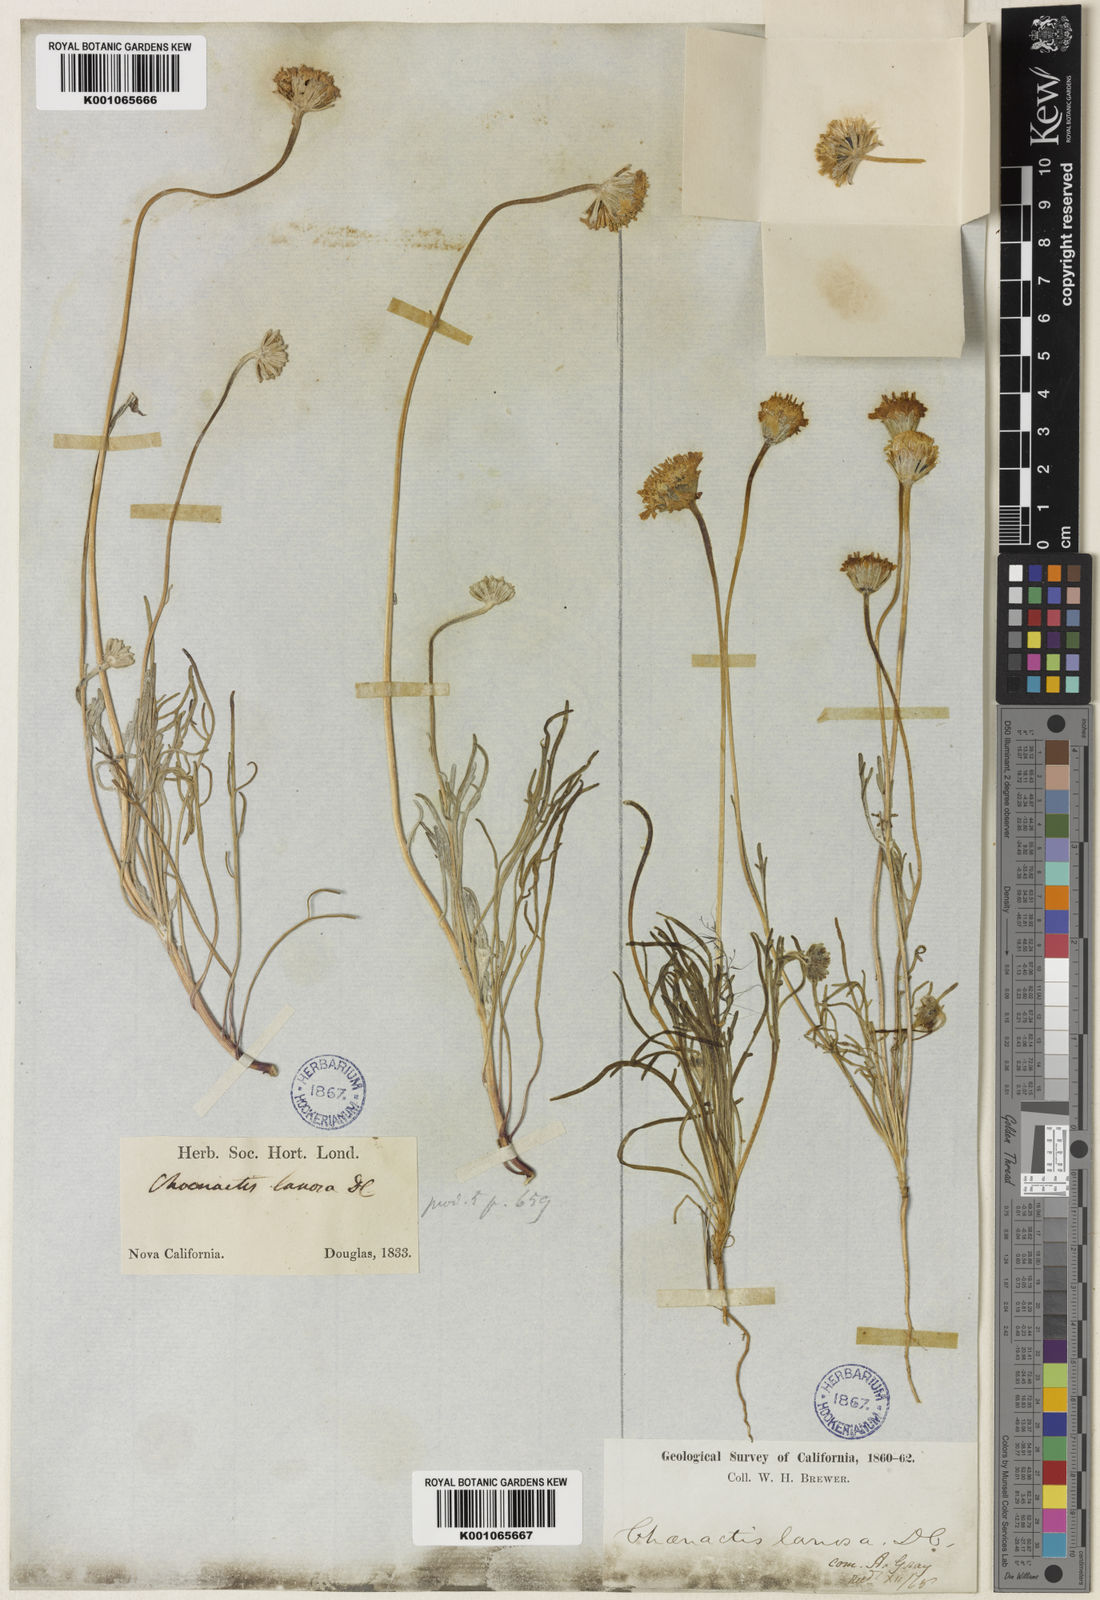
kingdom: Plantae
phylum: Tracheophyta
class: Magnoliopsida
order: Asterales
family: Asteraceae
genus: Chaenactis
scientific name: Chaenactis glabriuscula
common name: Yellow pincushion
